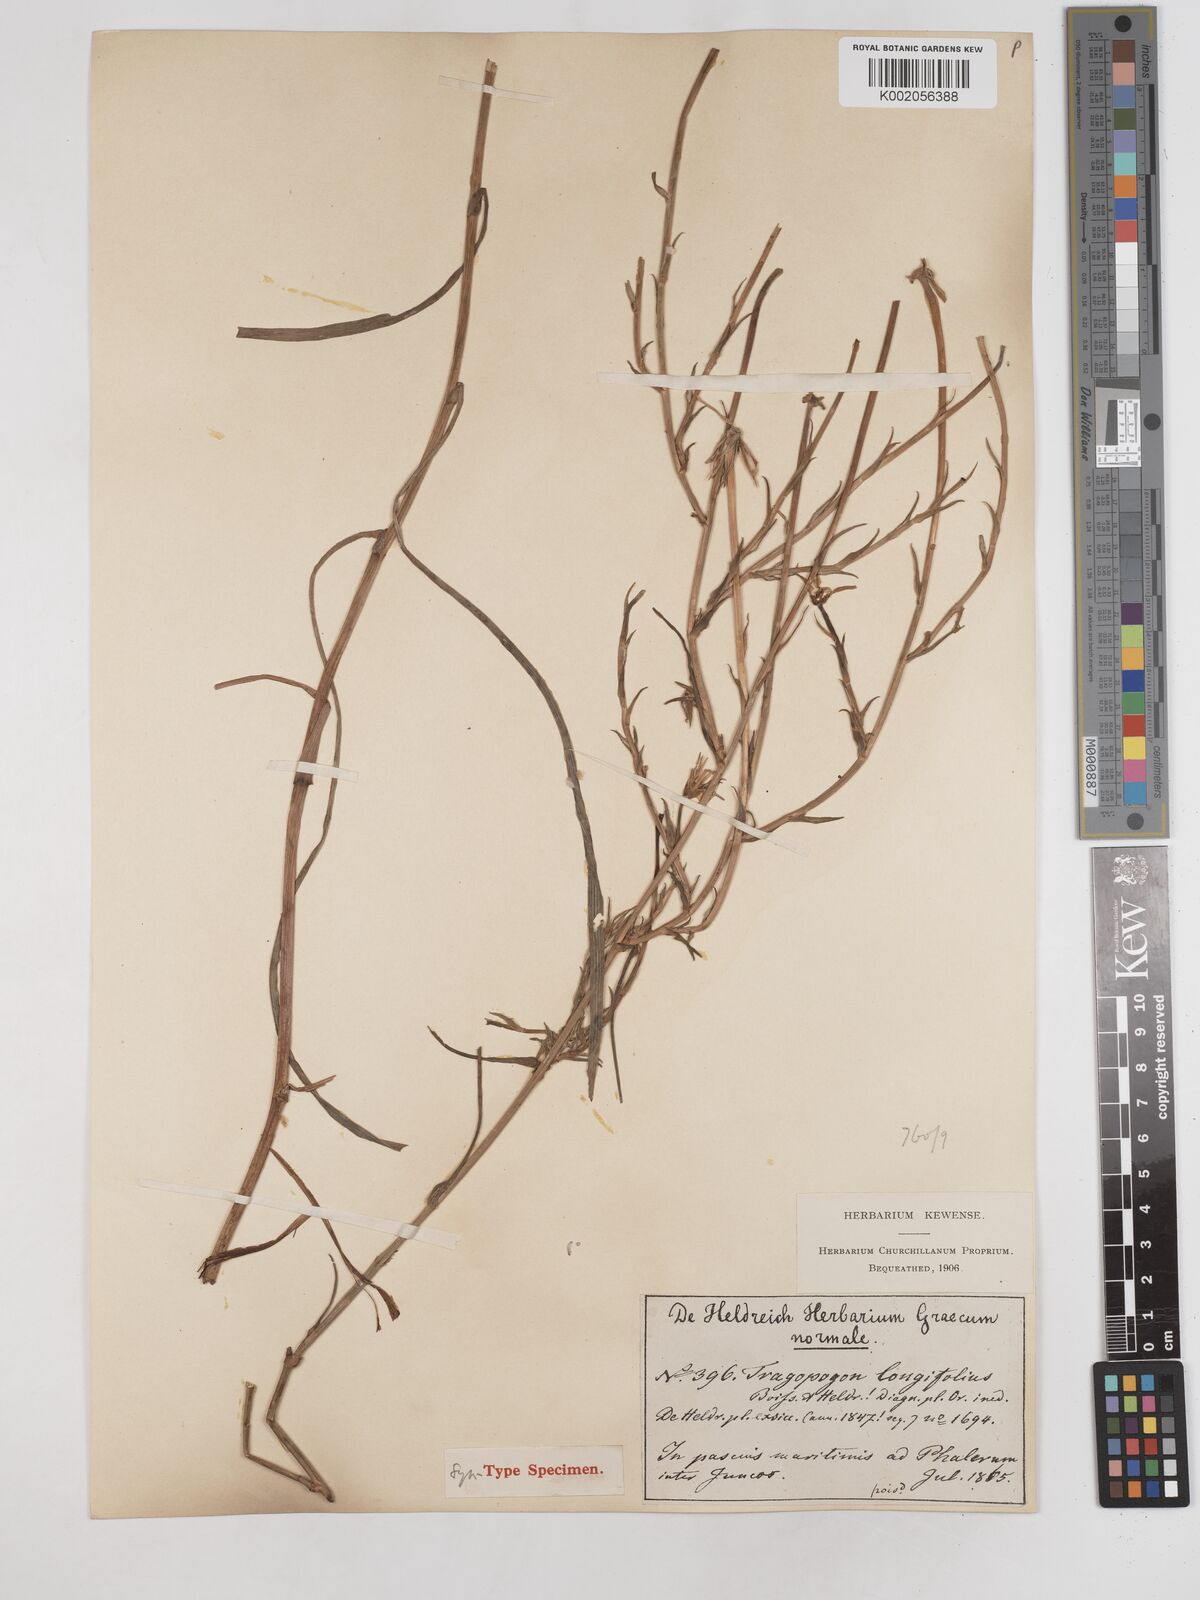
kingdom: Plantae
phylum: Tracheophyta
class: Magnoliopsida
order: Asterales
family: Asteraceae
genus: Tragopogon
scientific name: Tragopogon longifolius
